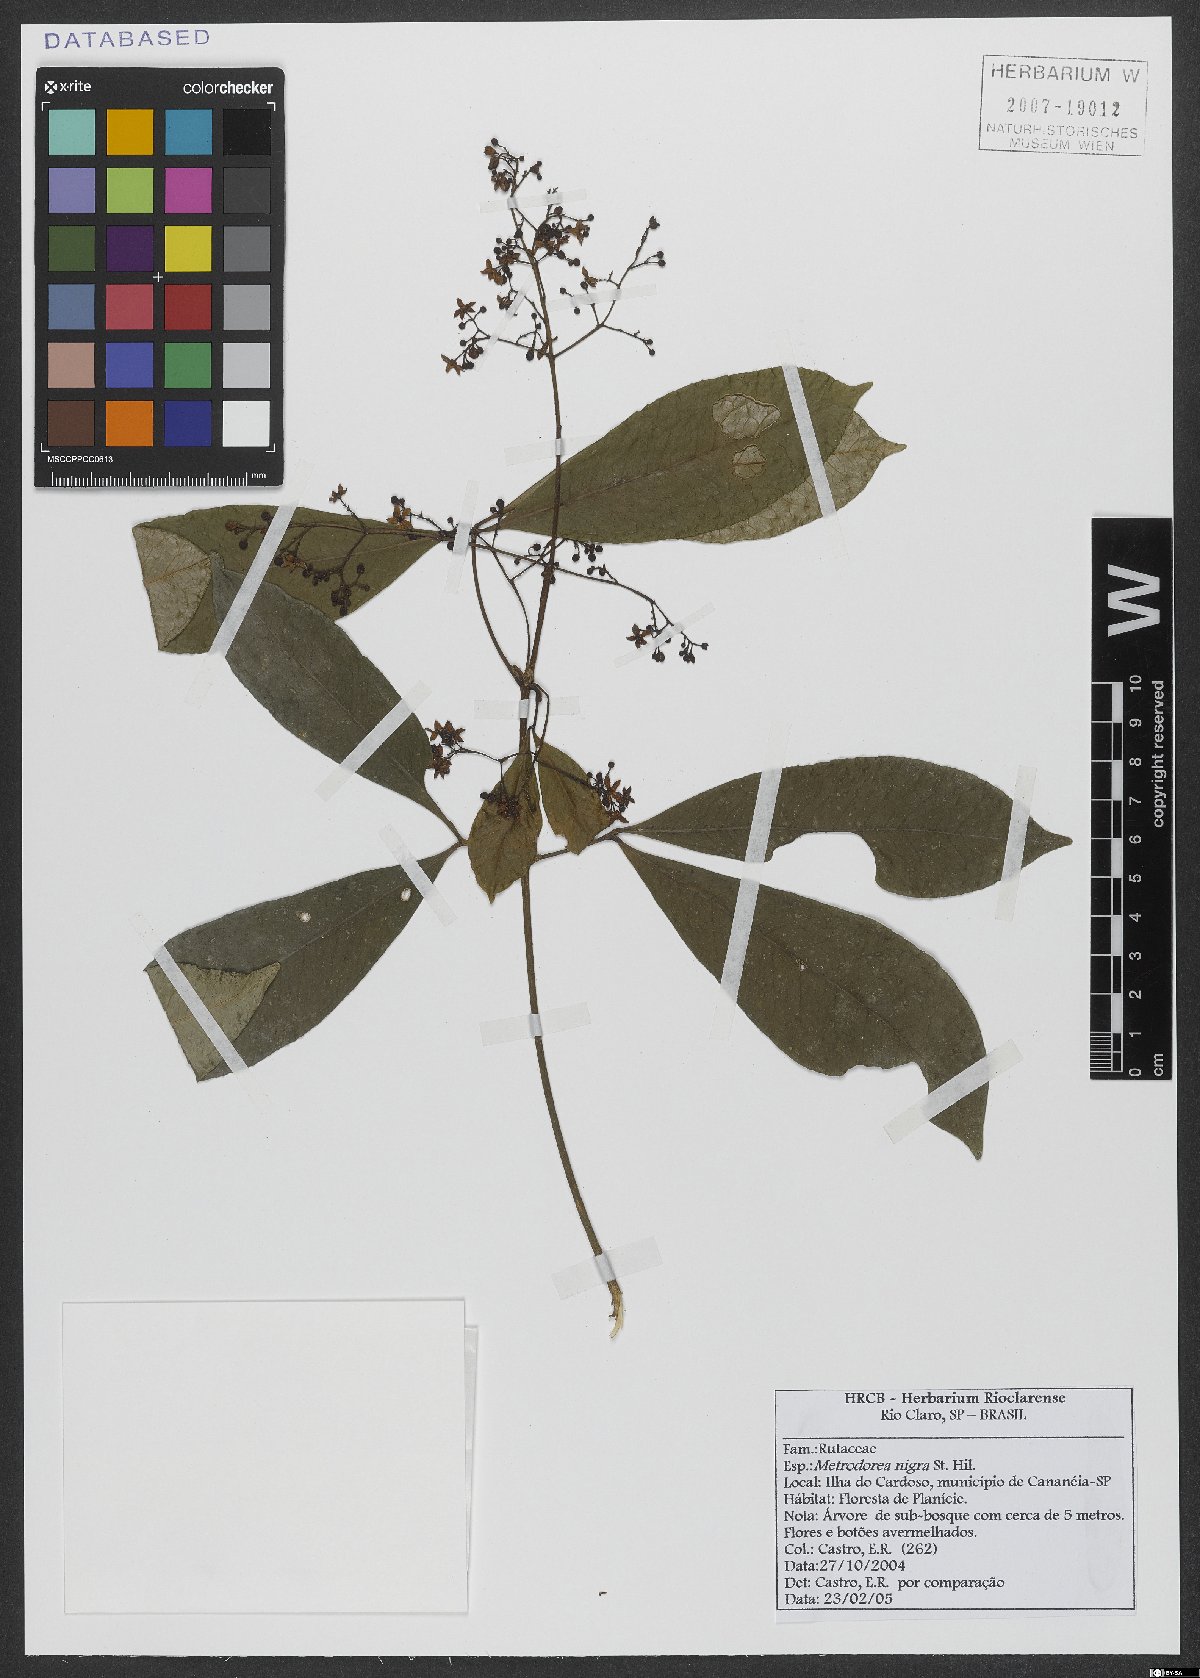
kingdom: Plantae
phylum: Tracheophyta
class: Magnoliopsida
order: Sapindales
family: Rutaceae
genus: Metrodorea
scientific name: Metrodorea nigra
